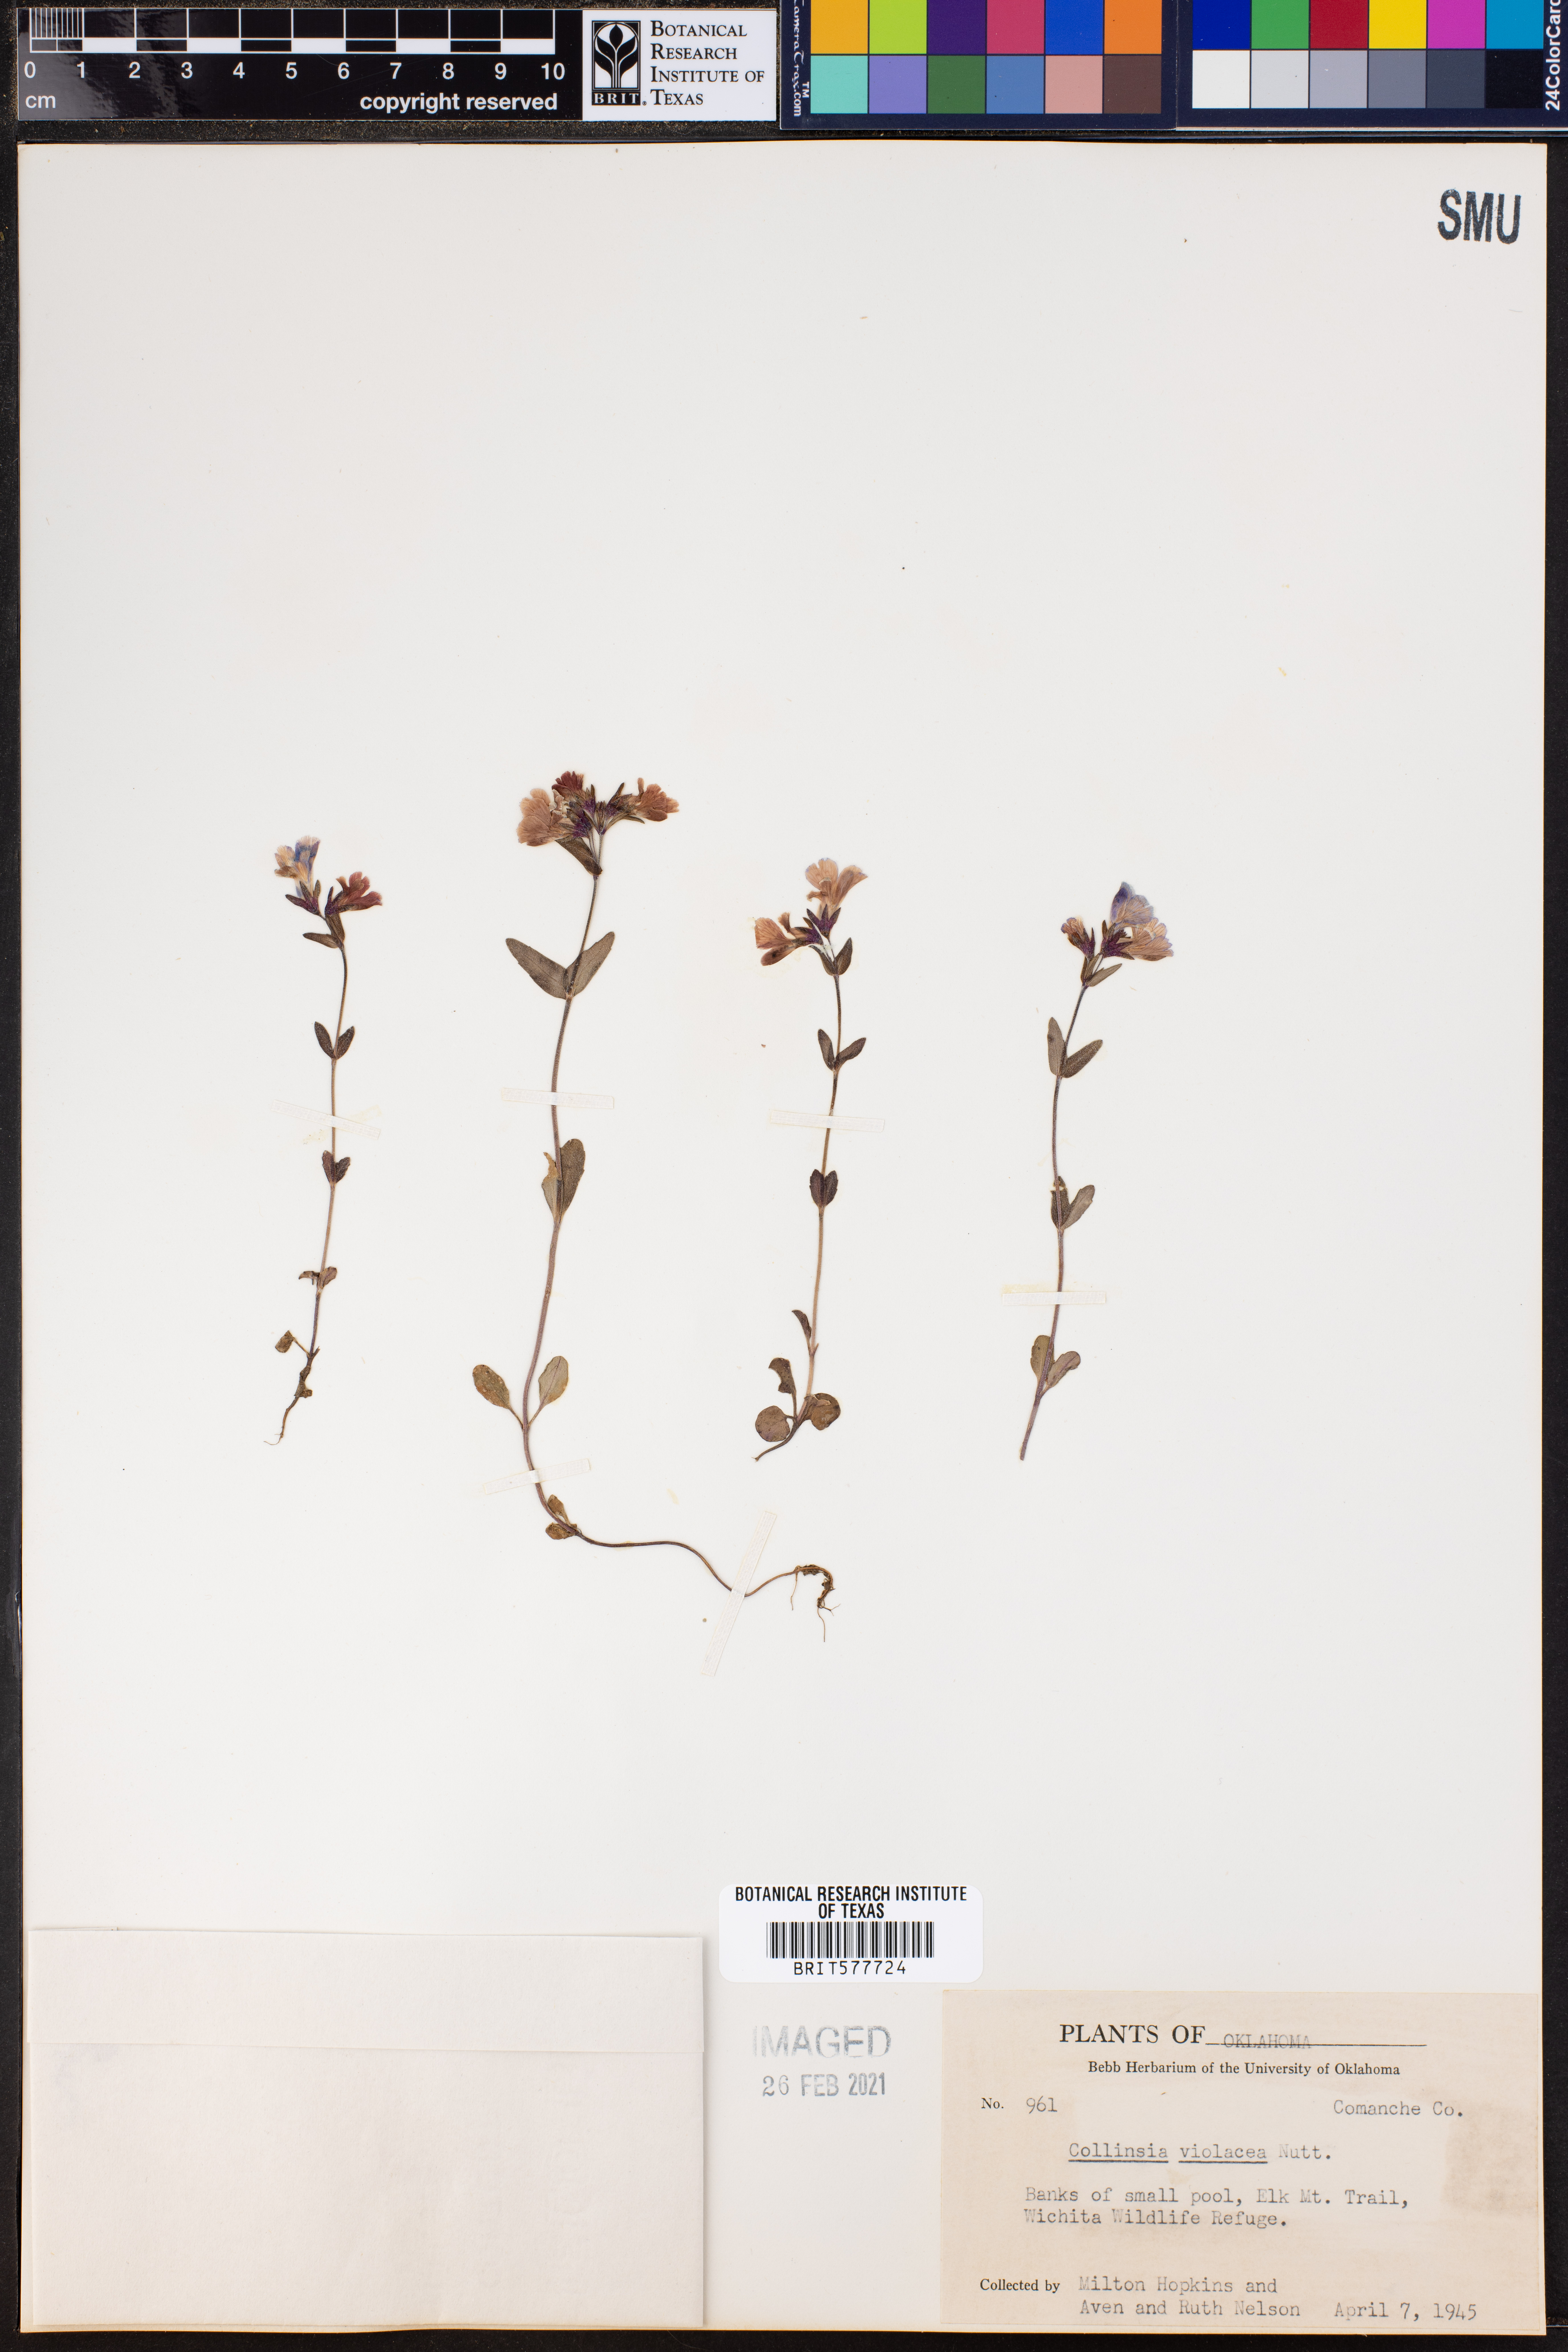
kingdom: Plantae
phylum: Tracheophyta
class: Magnoliopsida
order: Lamiales
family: Plantaginaceae
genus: Collinsia
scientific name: Collinsia violacea
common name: Violet collinsia
